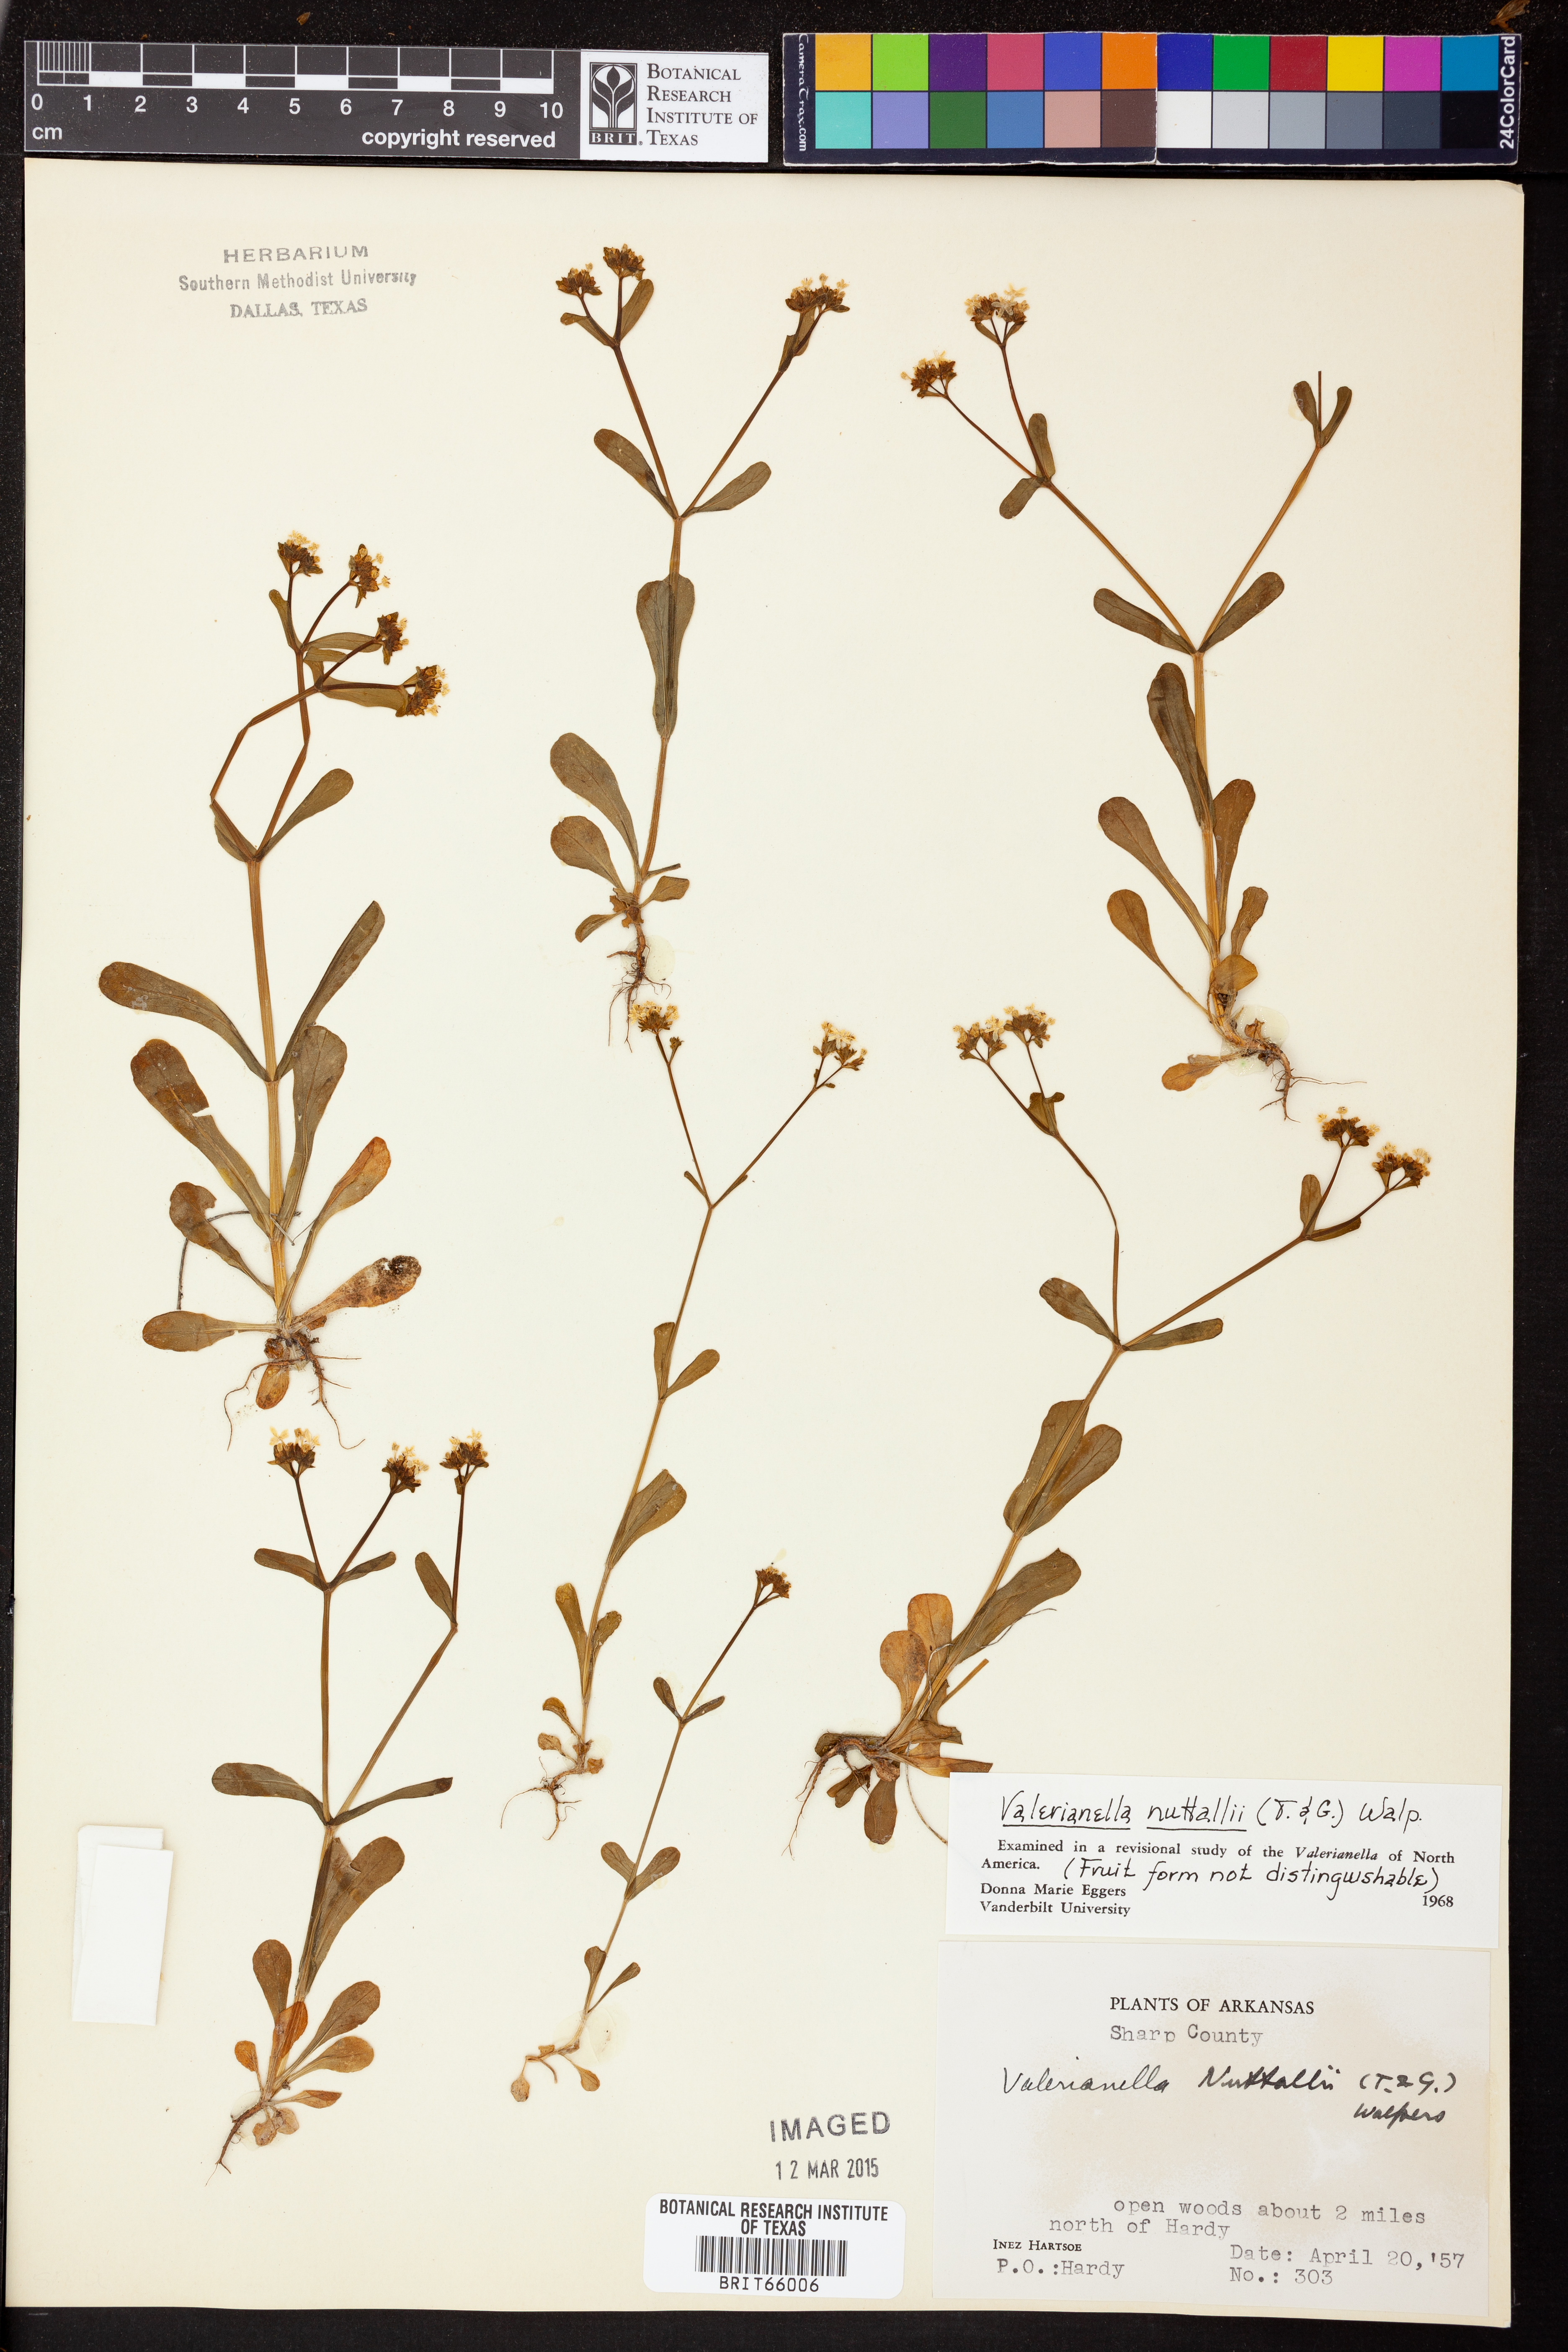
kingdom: Plantae
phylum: Tracheophyta
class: Magnoliopsida
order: Dipsacales
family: Caprifoliaceae
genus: Valerianella
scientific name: Valerianella nuttallii
